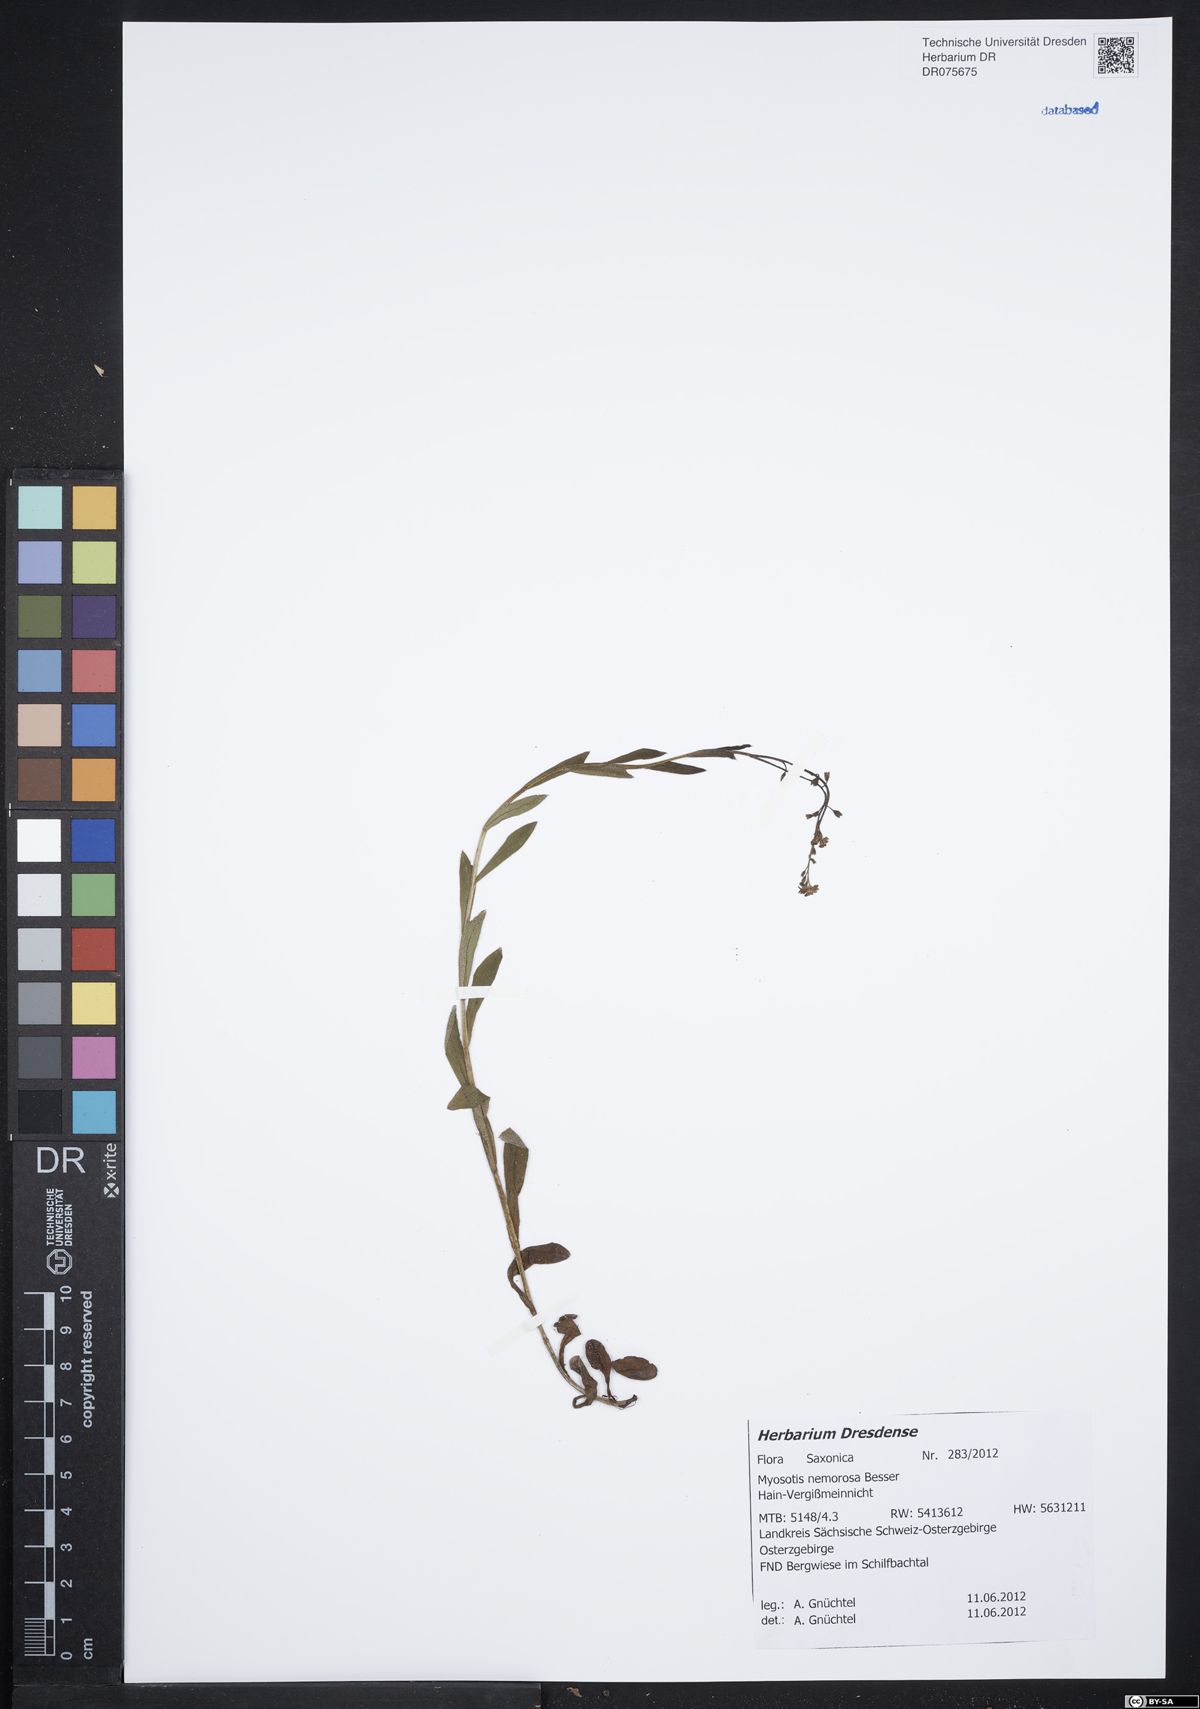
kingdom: Plantae
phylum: Tracheophyta
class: Magnoliopsida
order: Boraginales
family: Boraginaceae
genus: Myosotis
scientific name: Myosotis nemorosa
